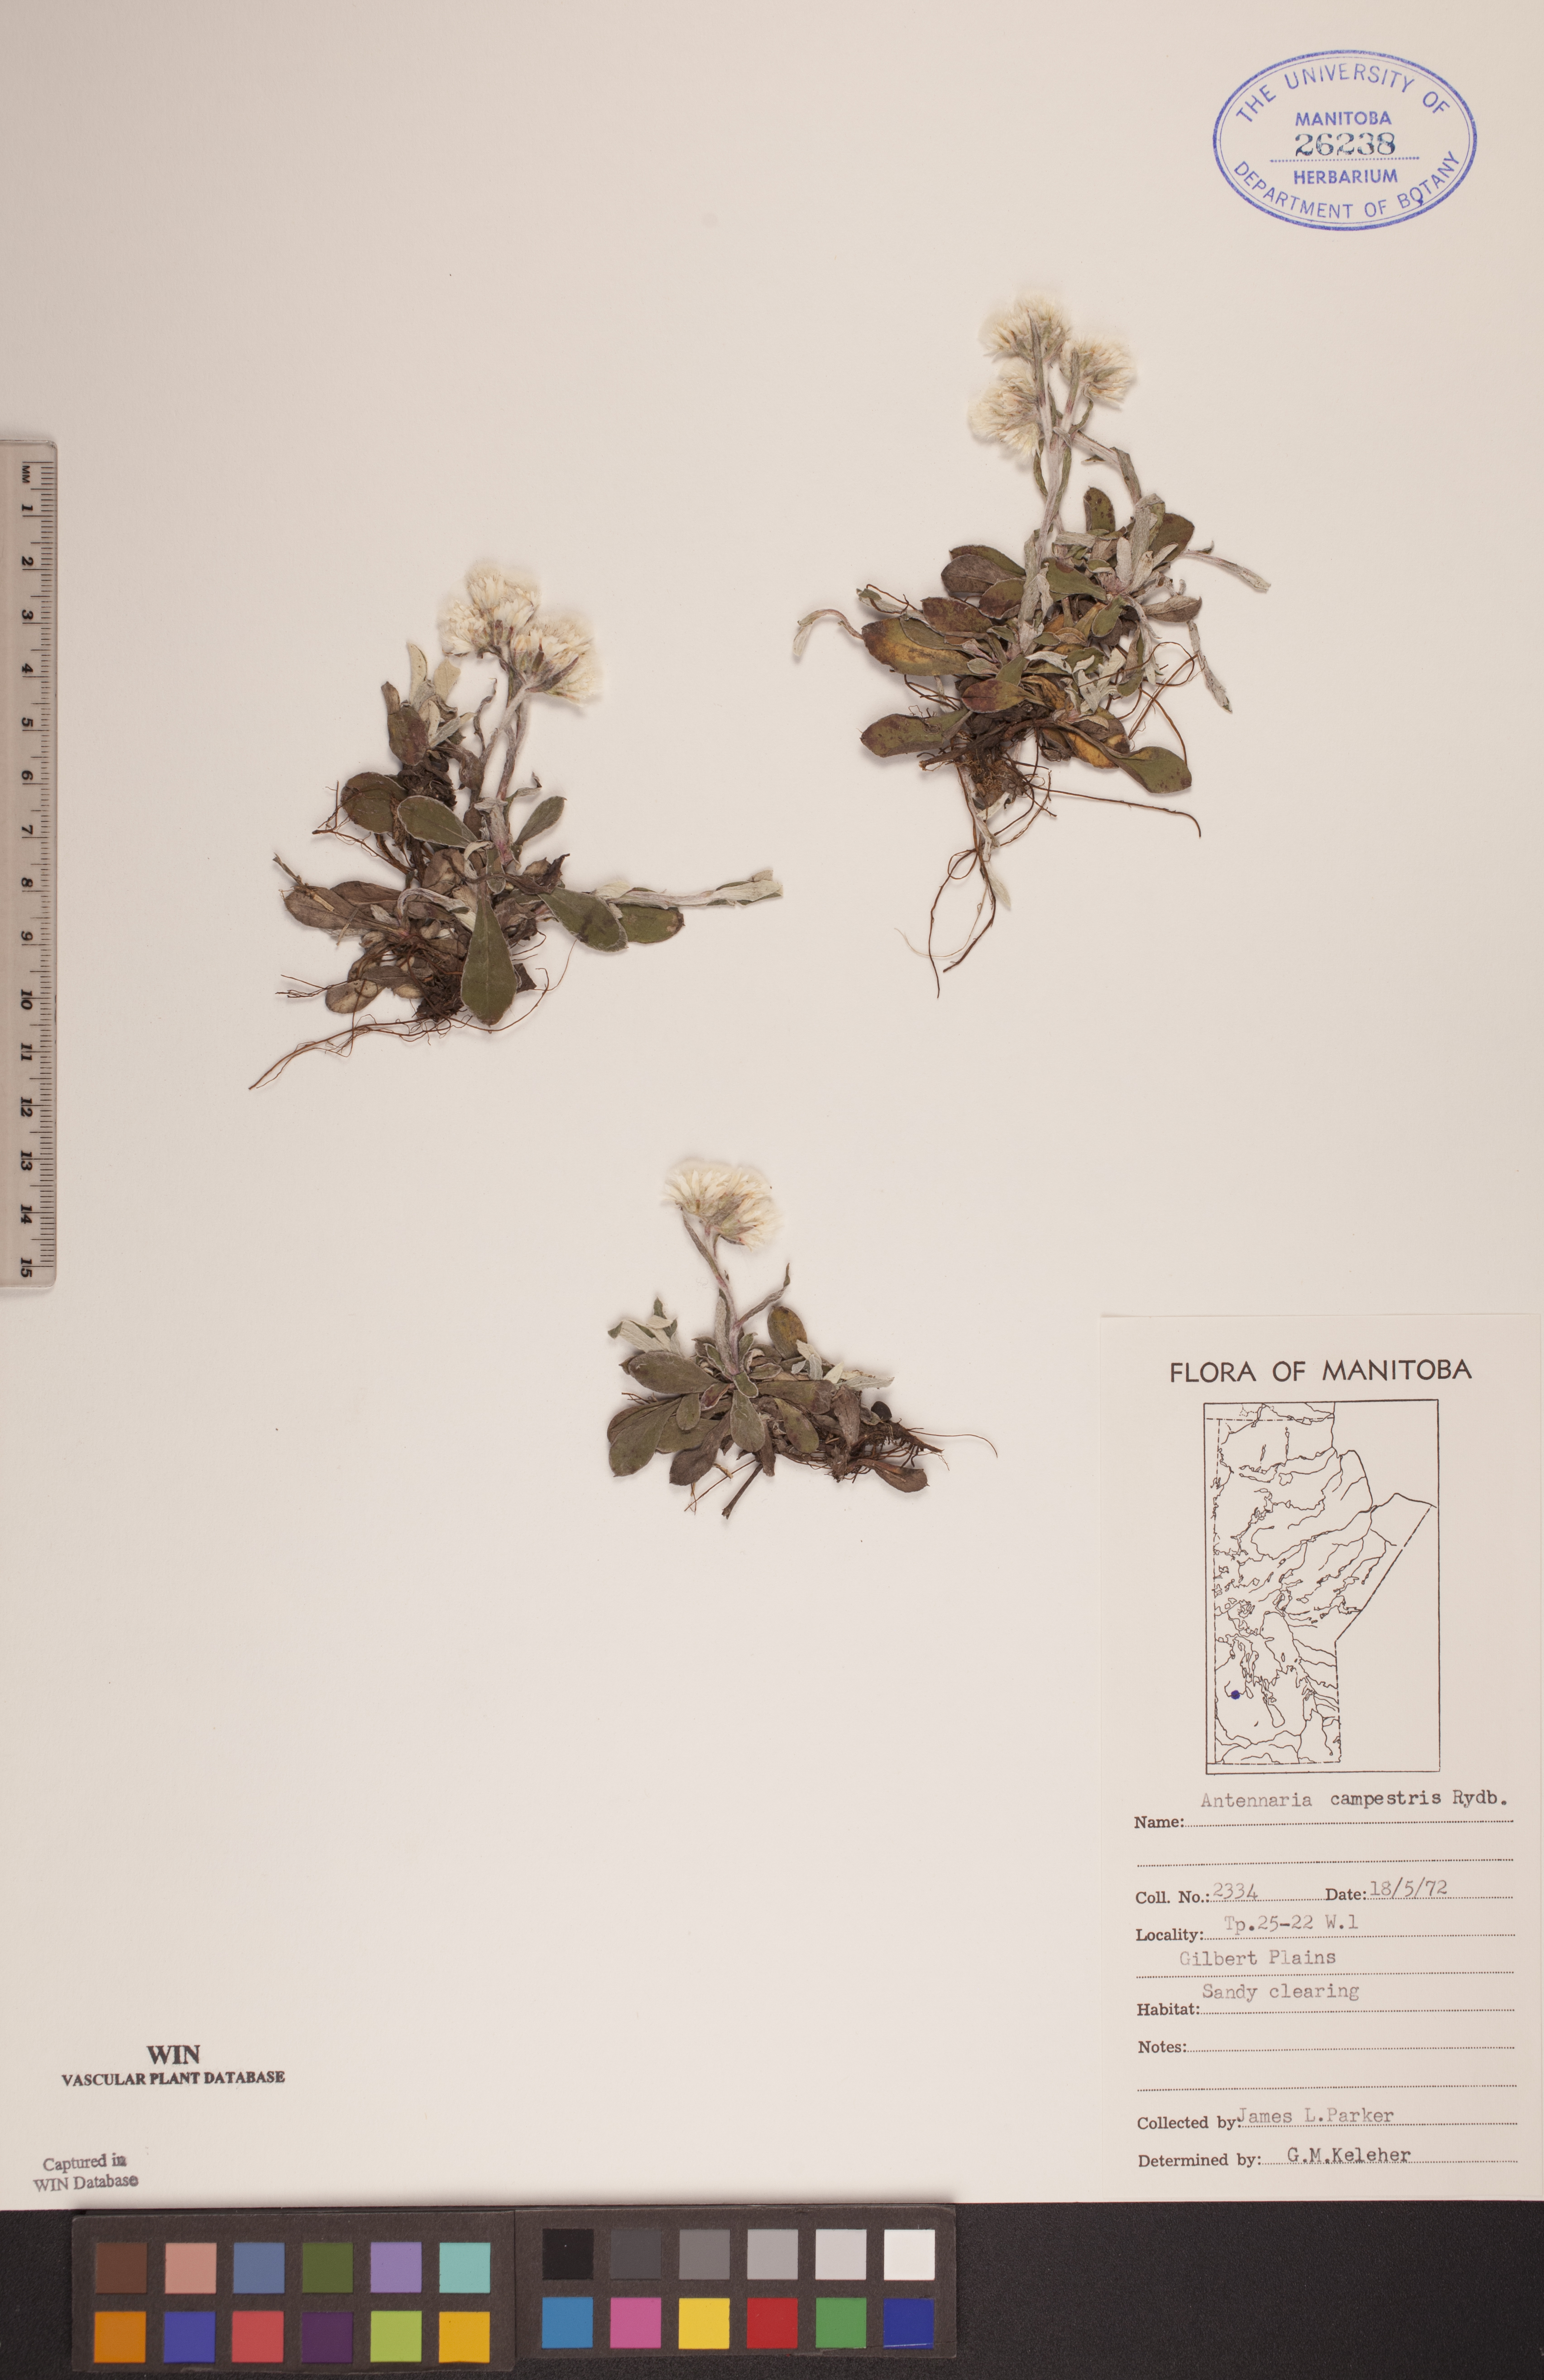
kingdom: Plantae
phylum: Tracheophyta
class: Magnoliopsida
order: Asterales
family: Asteraceae
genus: Antennaria
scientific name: Antennaria neglecta
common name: Field pussytoes
